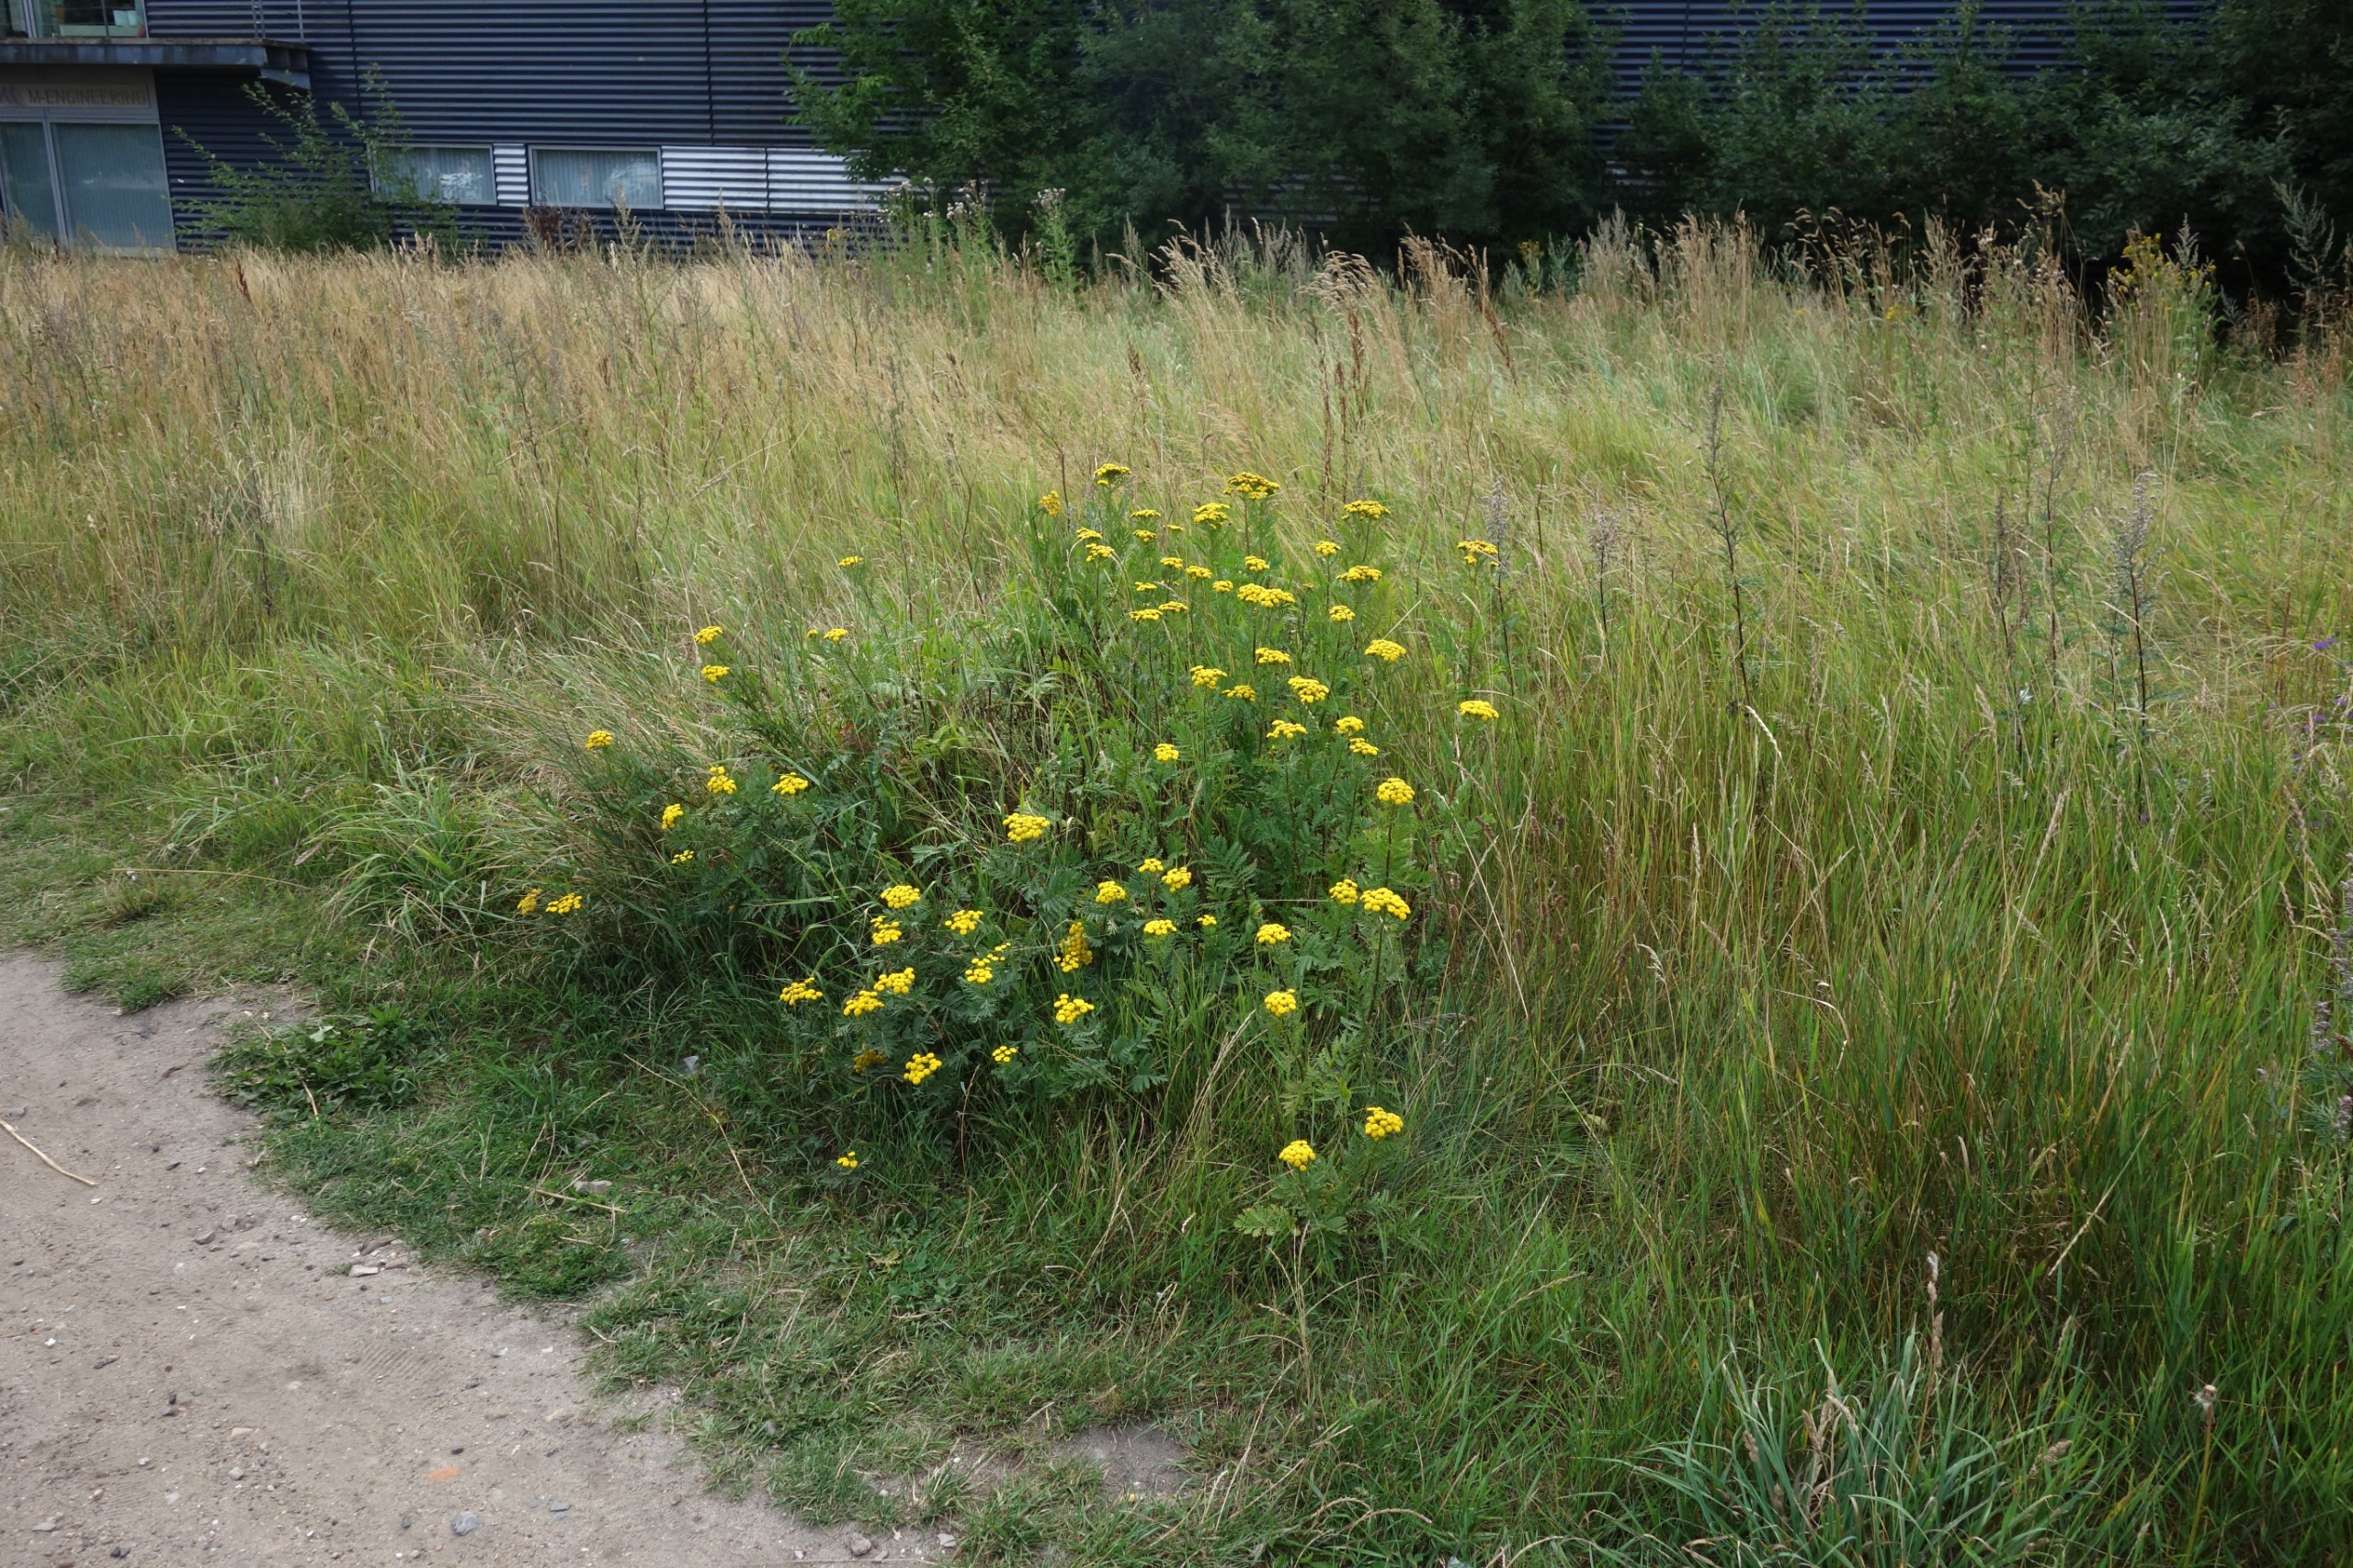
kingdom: Plantae
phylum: Tracheophyta
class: Magnoliopsida
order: Asterales
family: Asteraceae
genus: Tanacetum
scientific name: Tanacetum vulgare
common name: Rejnfan
